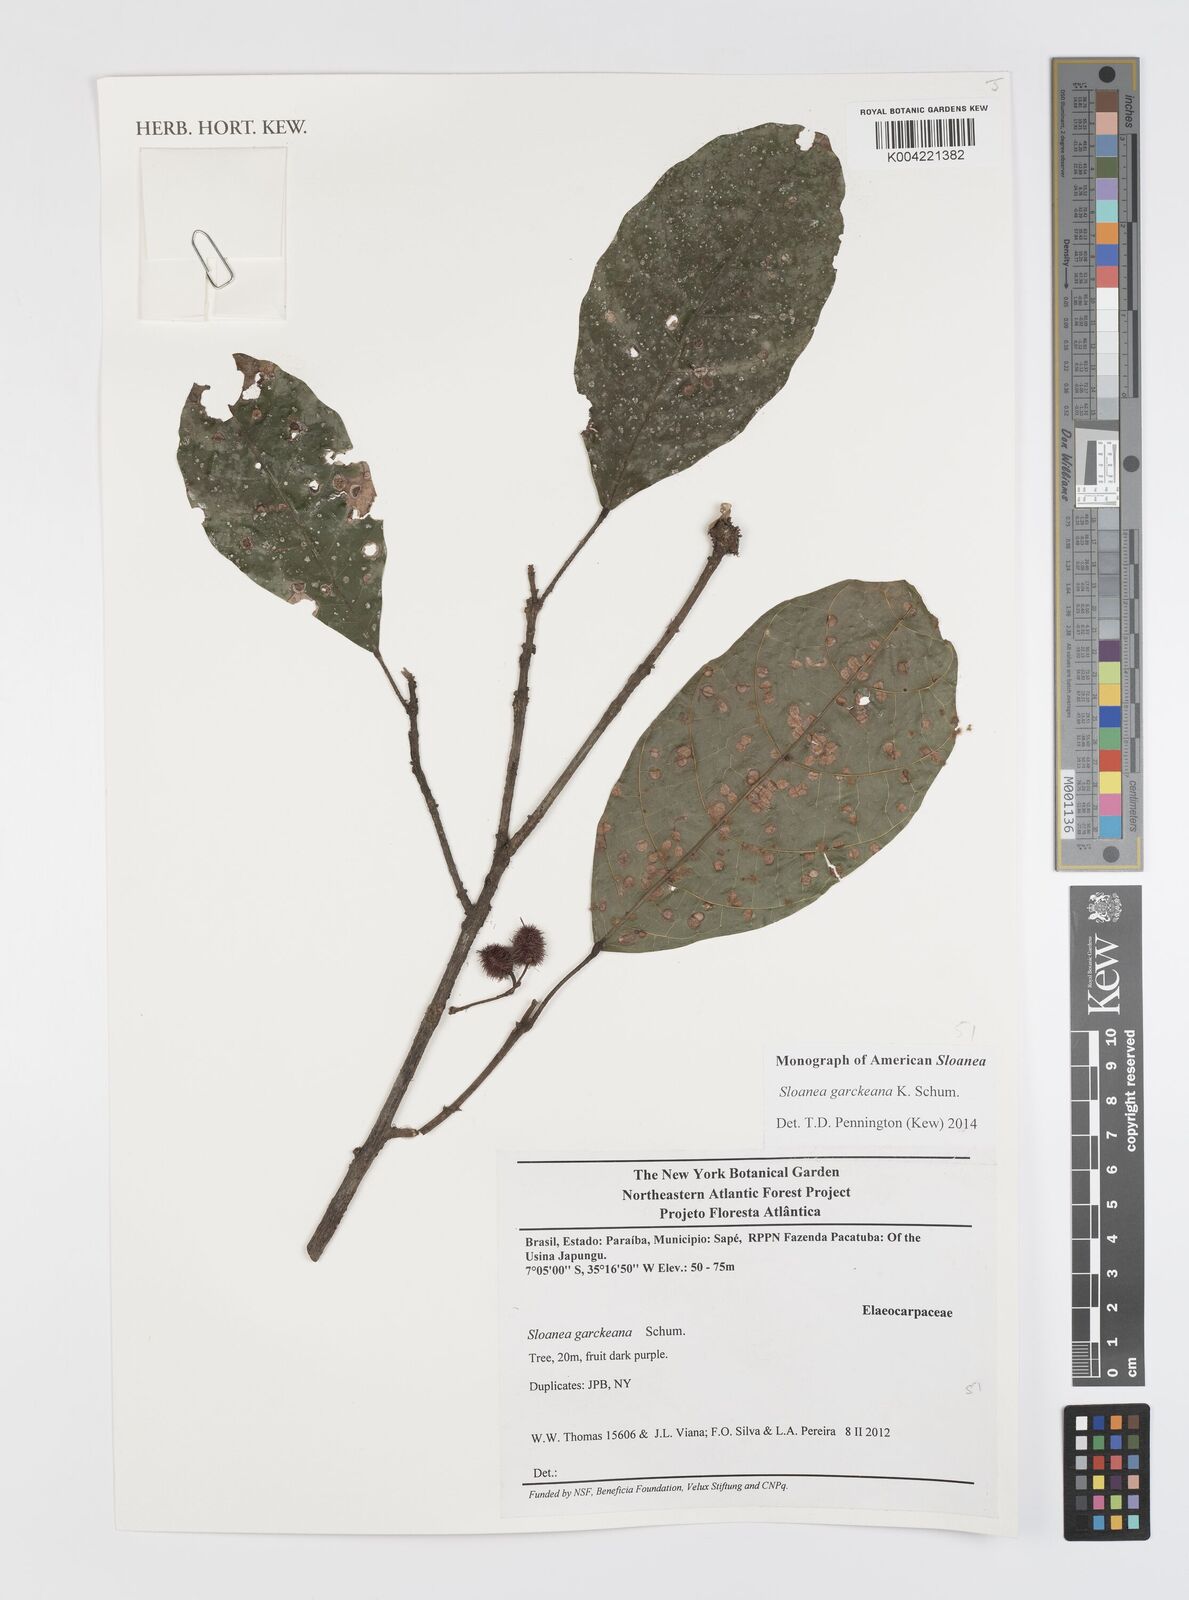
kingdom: Plantae
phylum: Tracheophyta
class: Magnoliopsida
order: Oxalidales
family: Elaeocarpaceae
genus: Sloanea
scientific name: Sloanea garckeana
